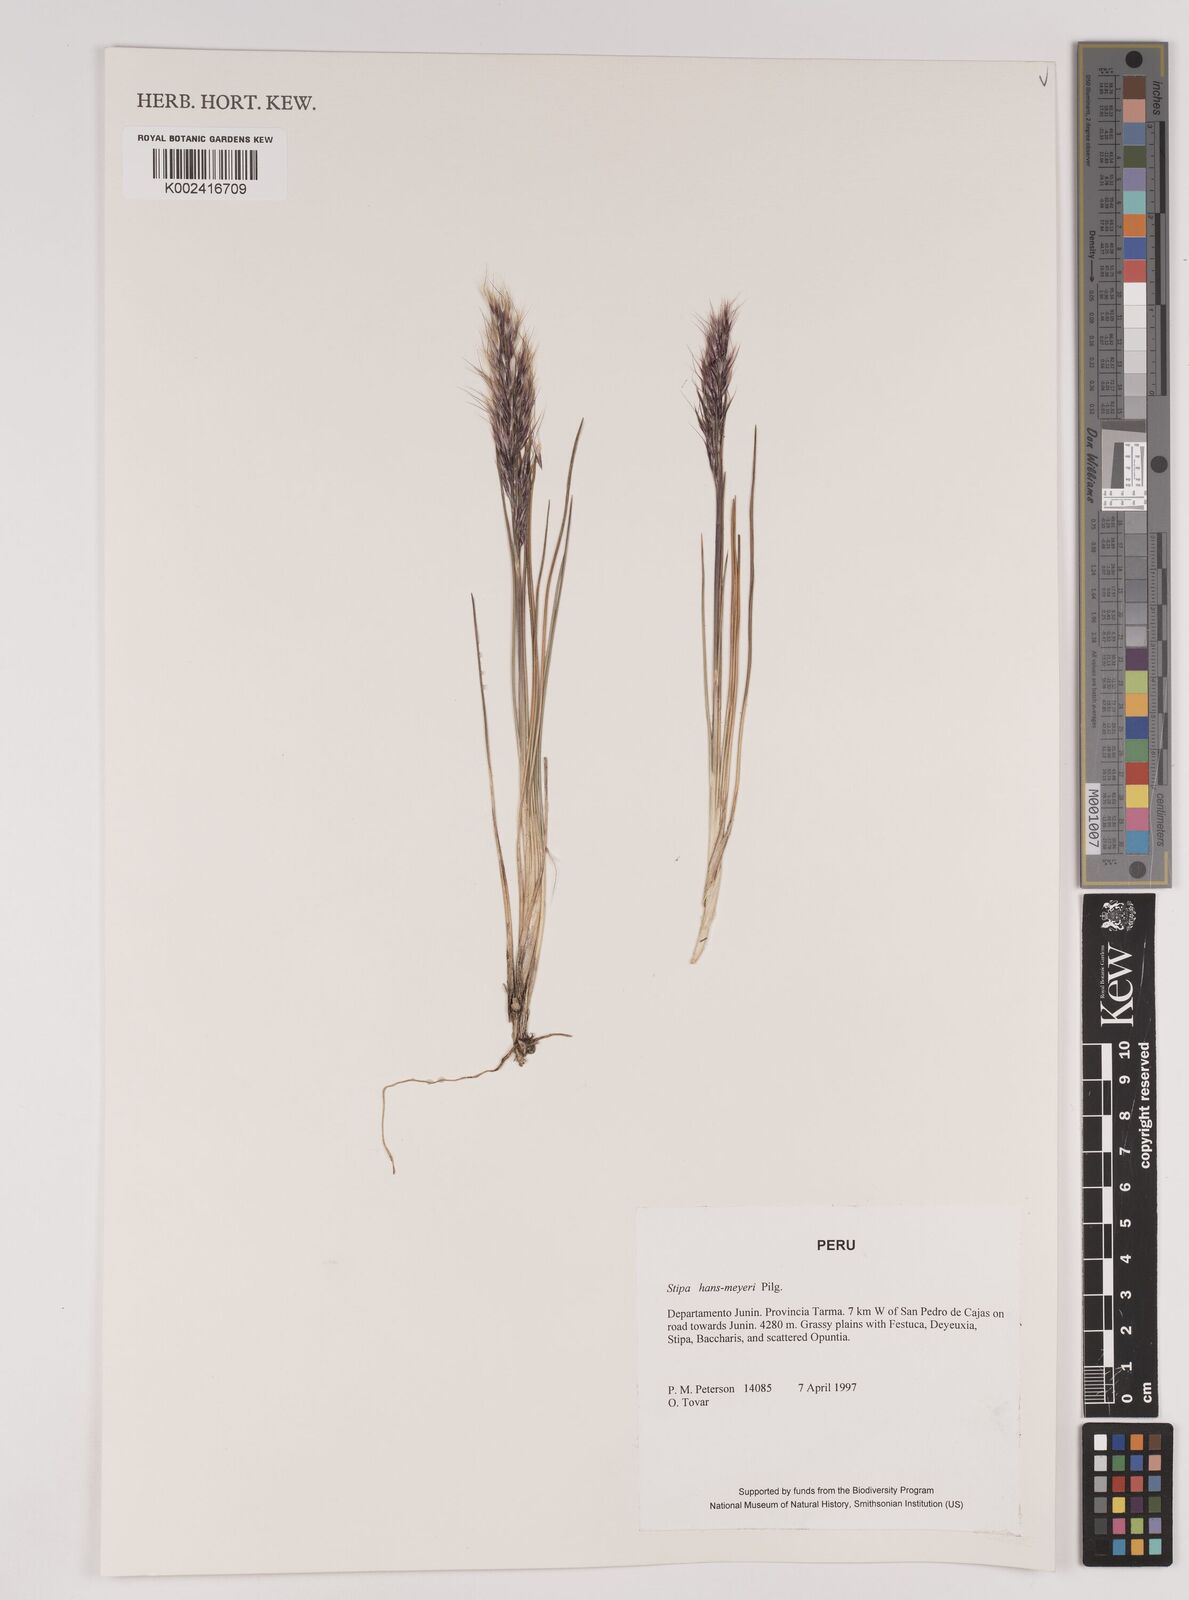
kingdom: Plantae
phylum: Tracheophyta
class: Liliopsida
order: Poales
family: Poaceae
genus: Stipa
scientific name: Stipa hans-meyeri
